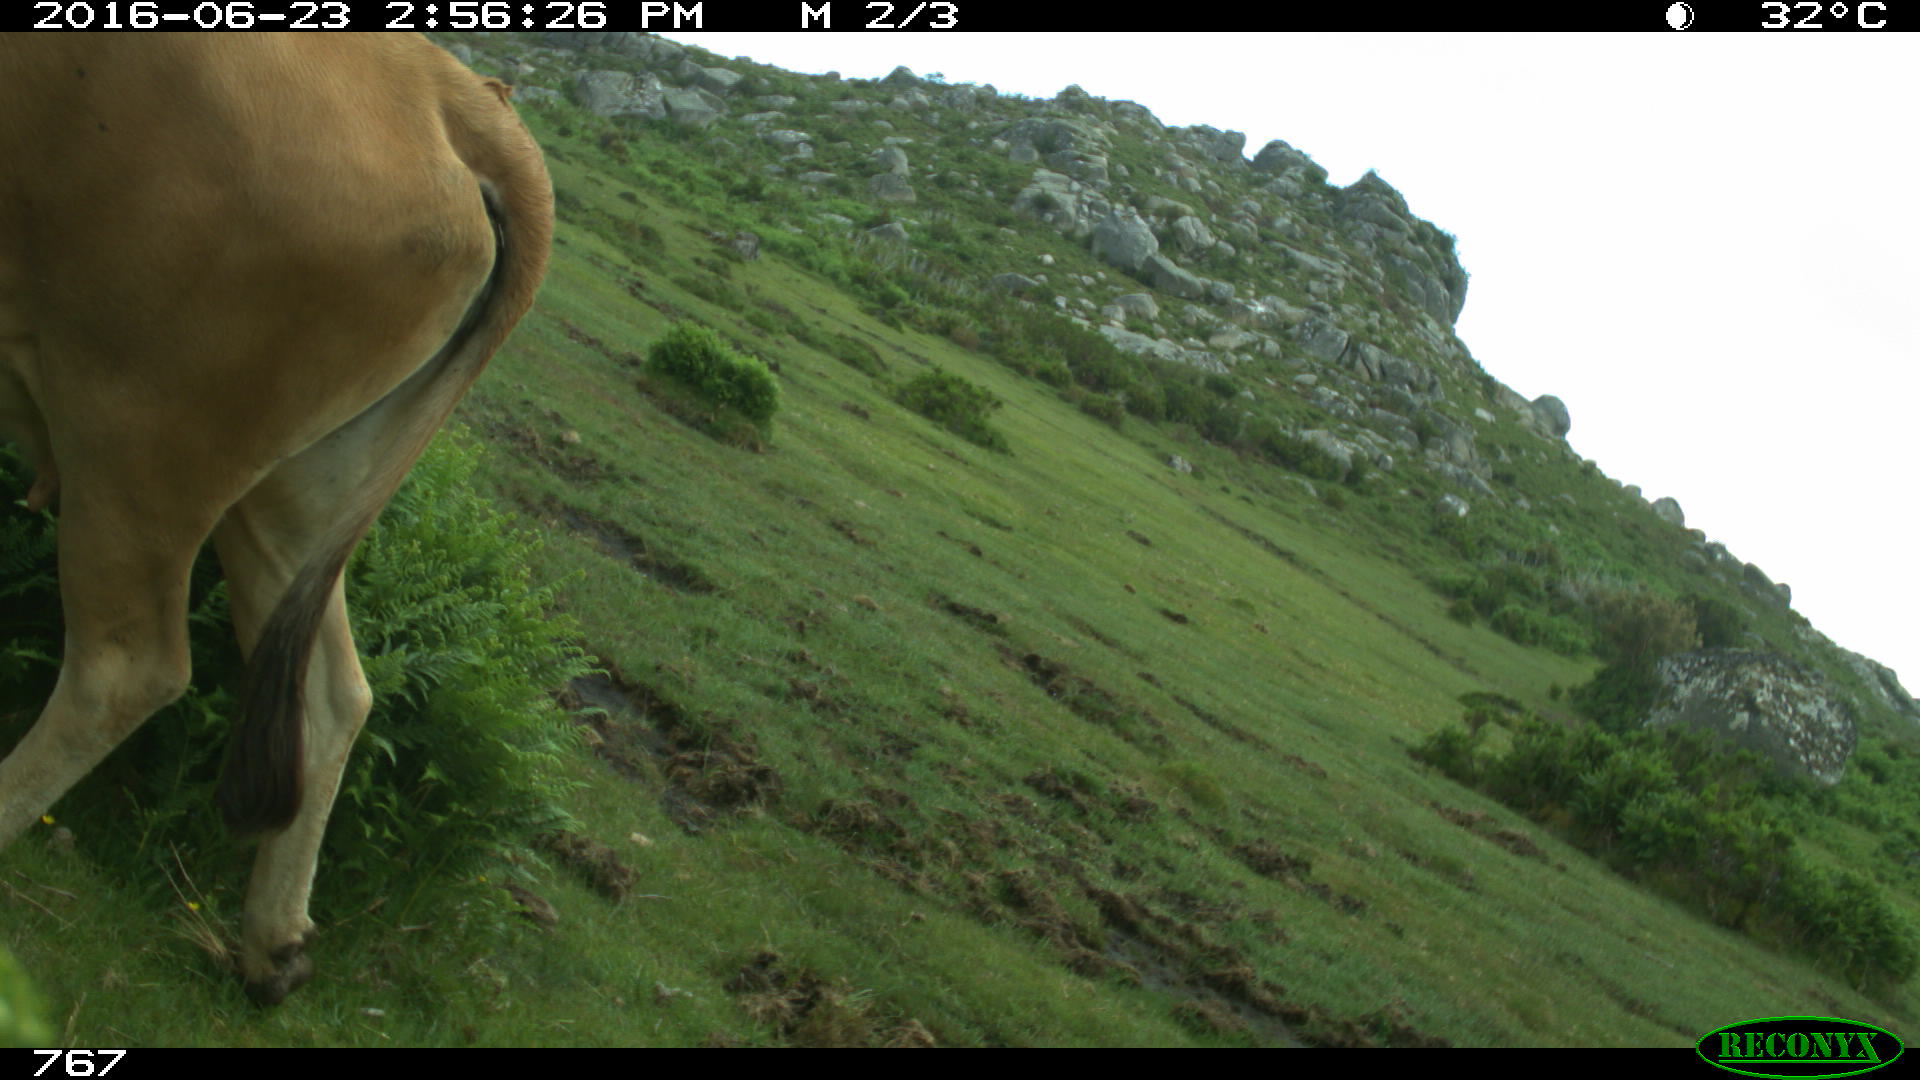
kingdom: Animalia
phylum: Chordata
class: Mammalia
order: Artiodactyla
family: Bovidae
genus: Bos
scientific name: Bos taurus
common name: Domesticated cattle
